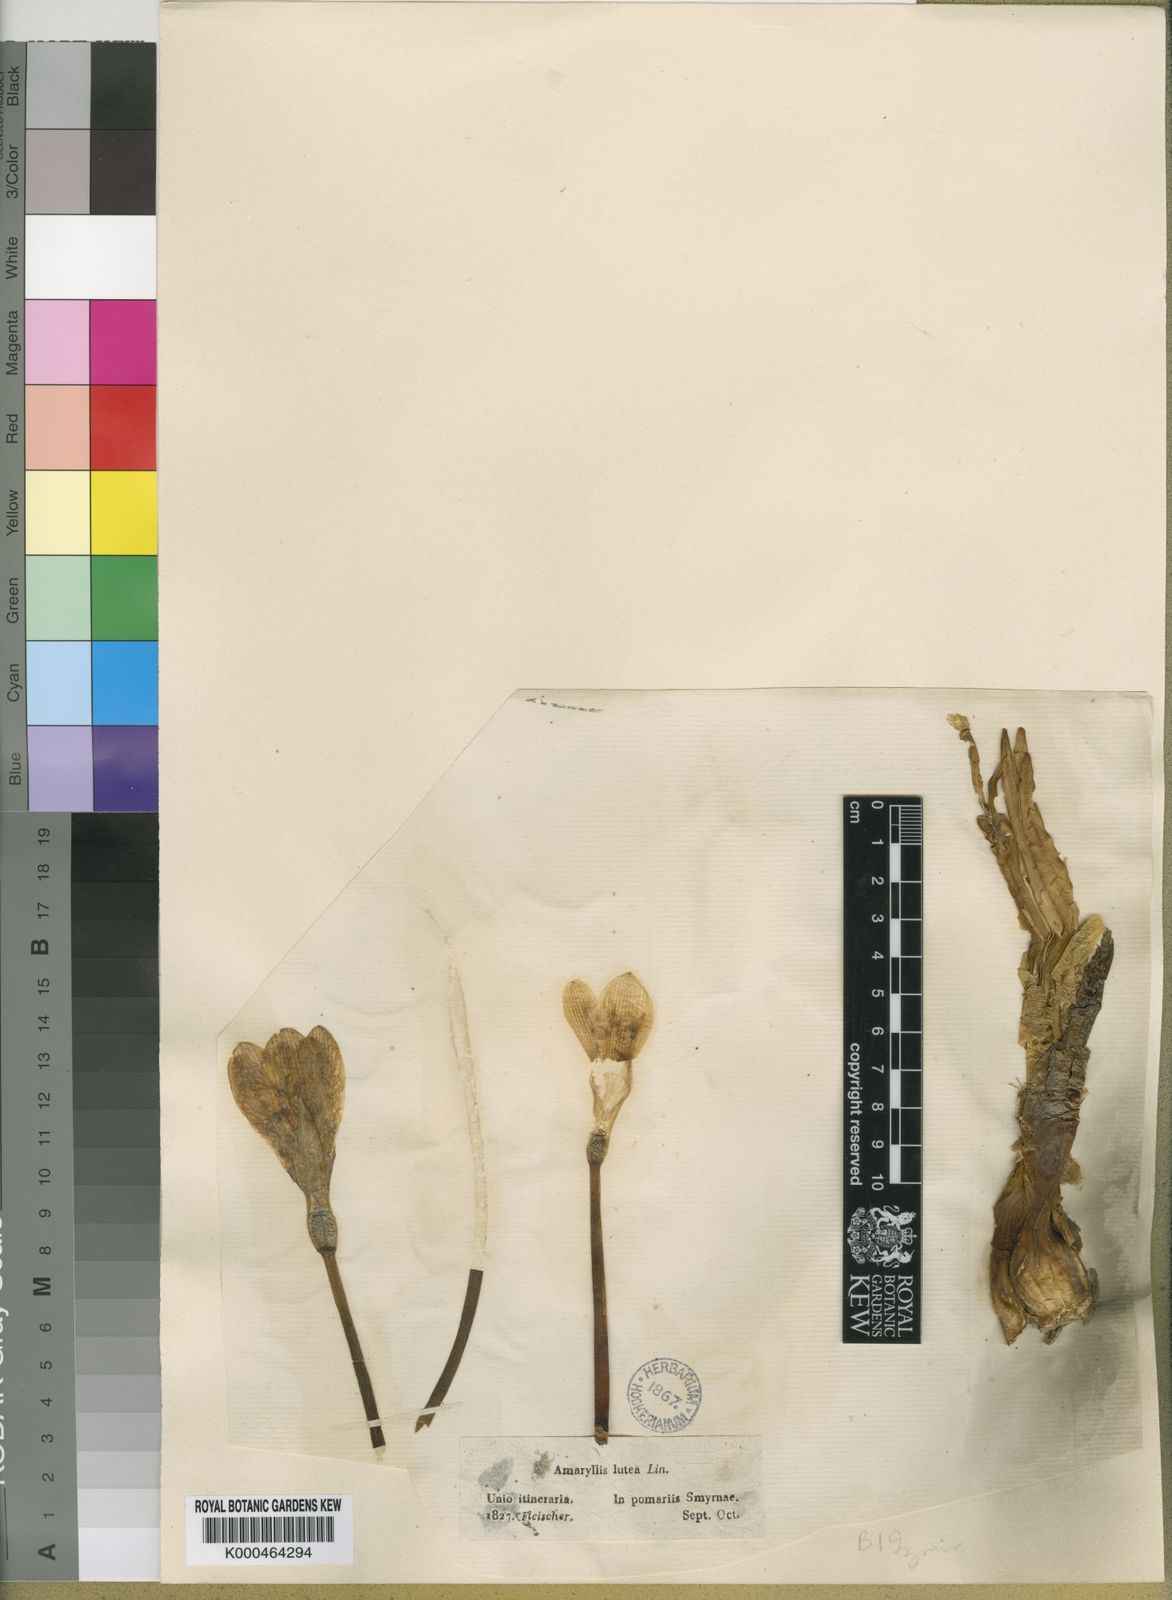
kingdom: Plantae
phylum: Tracheophyta
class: Liliopsida
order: Asparagales
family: Amaryllidaceae
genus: Sternbergia
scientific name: Sternbergia lutea
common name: Winter daffodil
